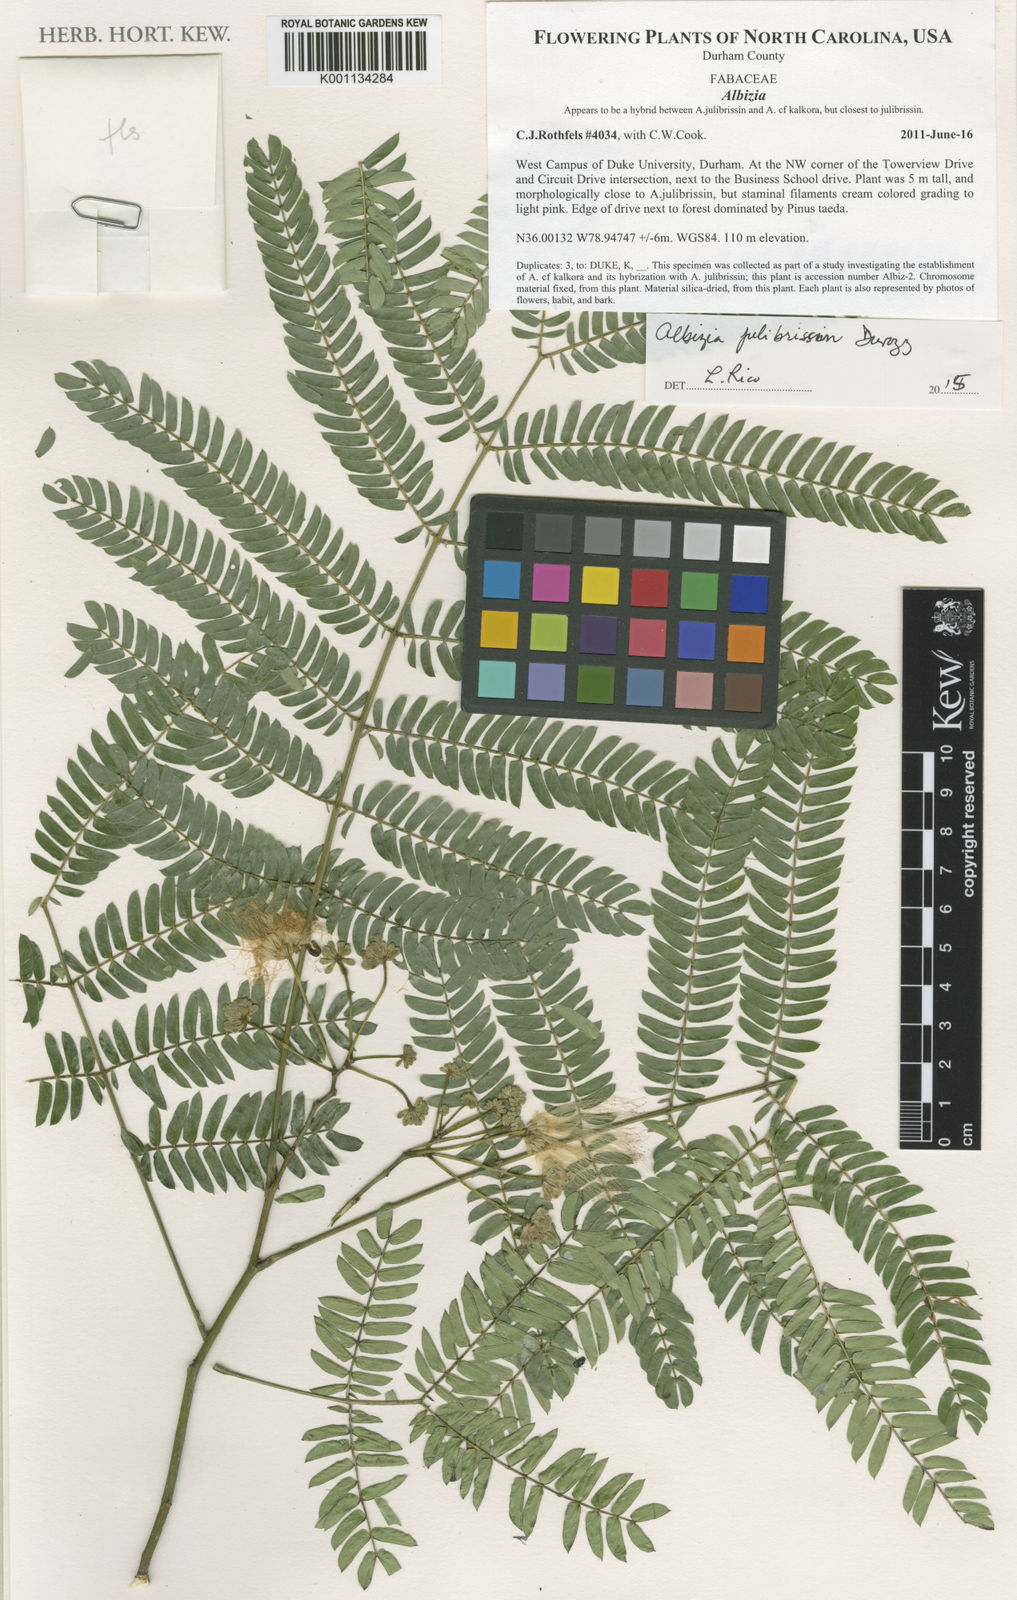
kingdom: Plantae
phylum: Tracheophyta
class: Magnoliopsida
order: Fabales
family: Fabaceae
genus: Albizia
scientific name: Albizia julibrissin
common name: Silktree
